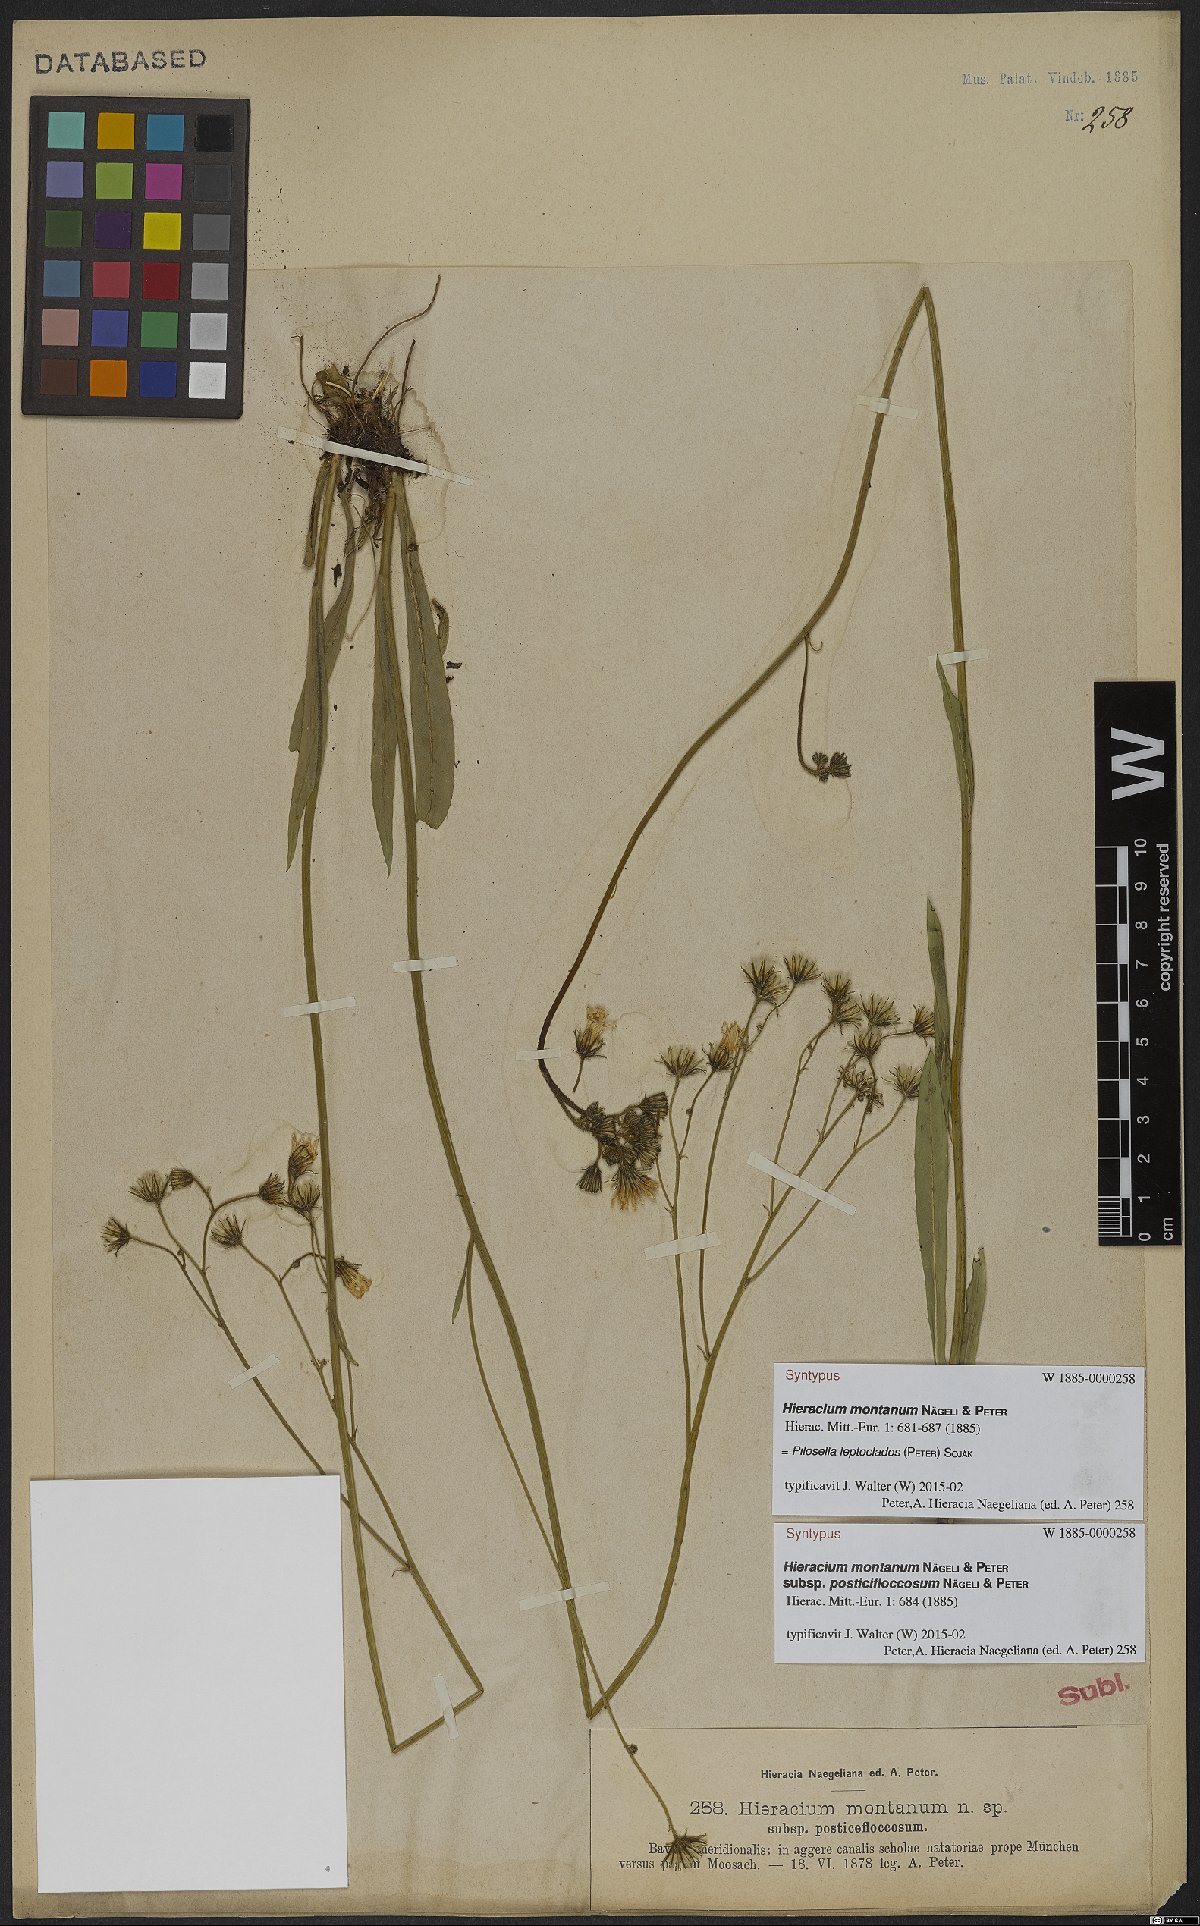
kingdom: Plantae
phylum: Tracheophyta
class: Magnoliopsida
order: Asterales
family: Asteraceae
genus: Pilosella
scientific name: Pilosella leptoclados
